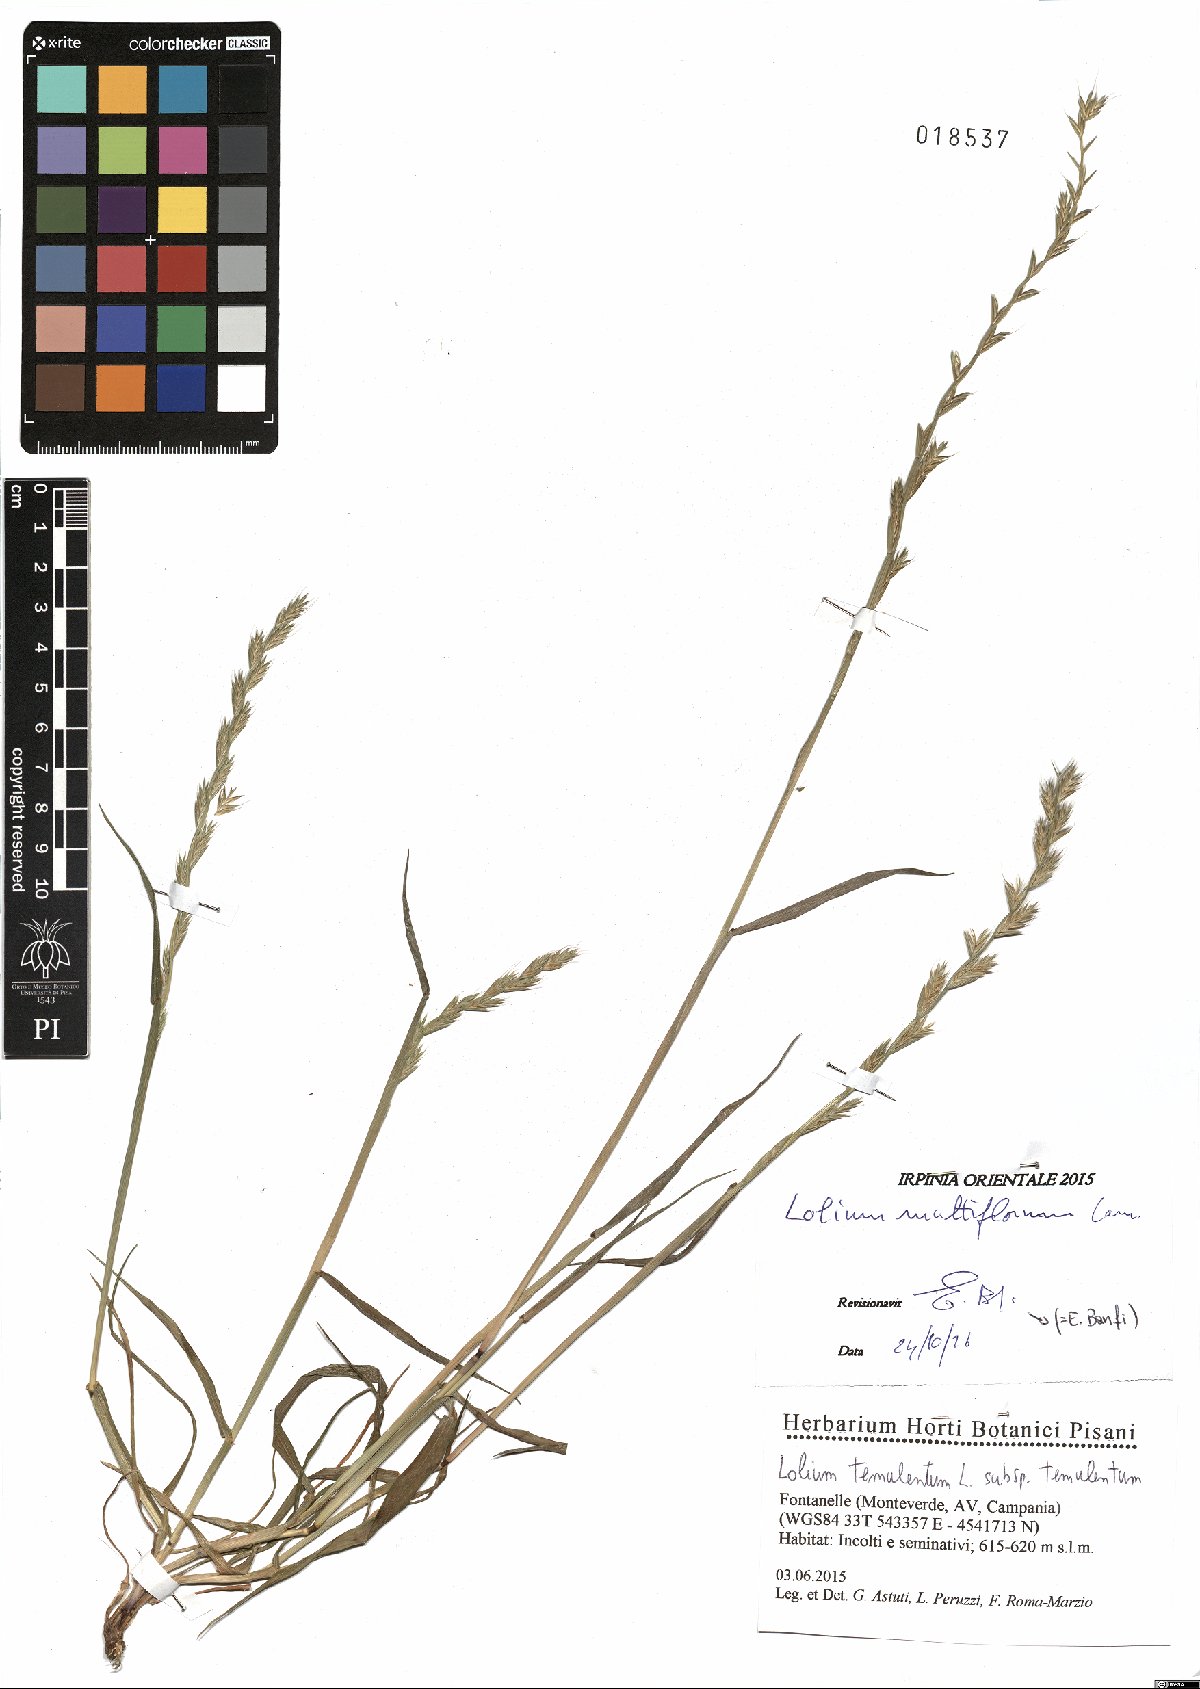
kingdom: Plantae
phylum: Tracheophyta
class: Liliopsida
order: Poales
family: Poaceae
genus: Lolium
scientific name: Lolium multiflorum
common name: Annual ryegrass
